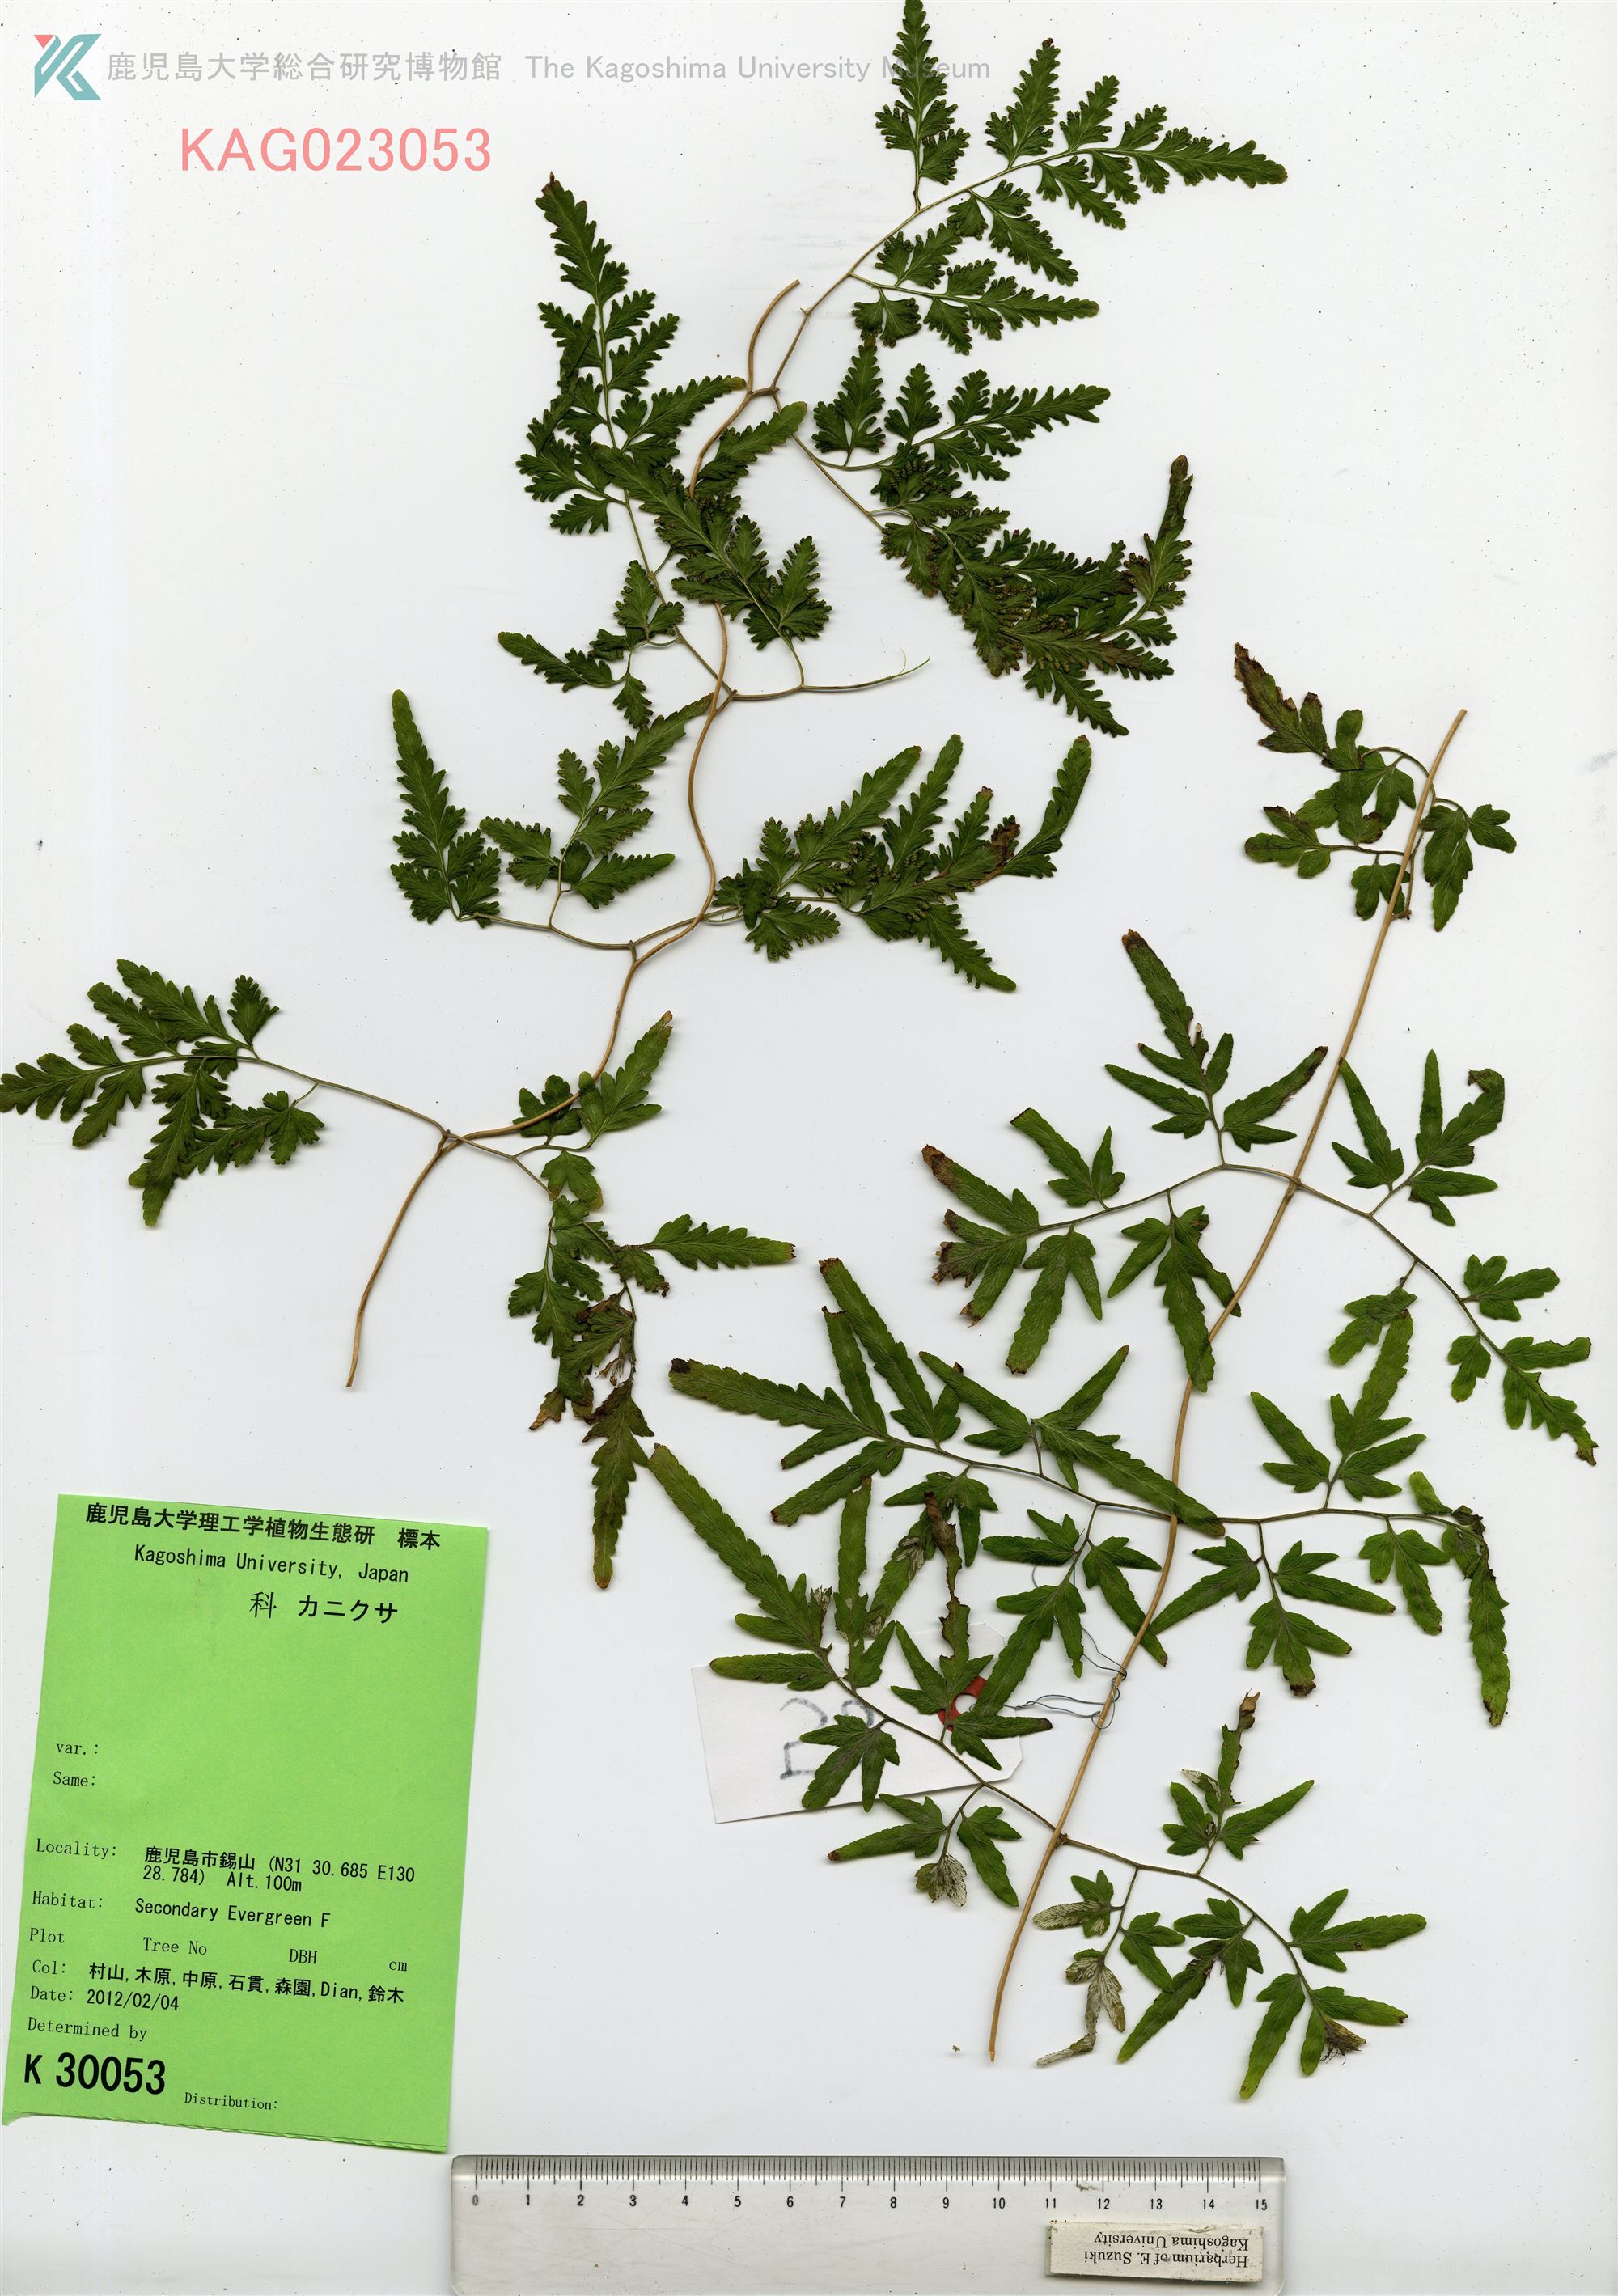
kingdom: Plantae
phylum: Tracheophyta
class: Polypodiopsida
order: Schizaeales
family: Lygodiaceae
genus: Lygodium
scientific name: Lygodium japonicum
